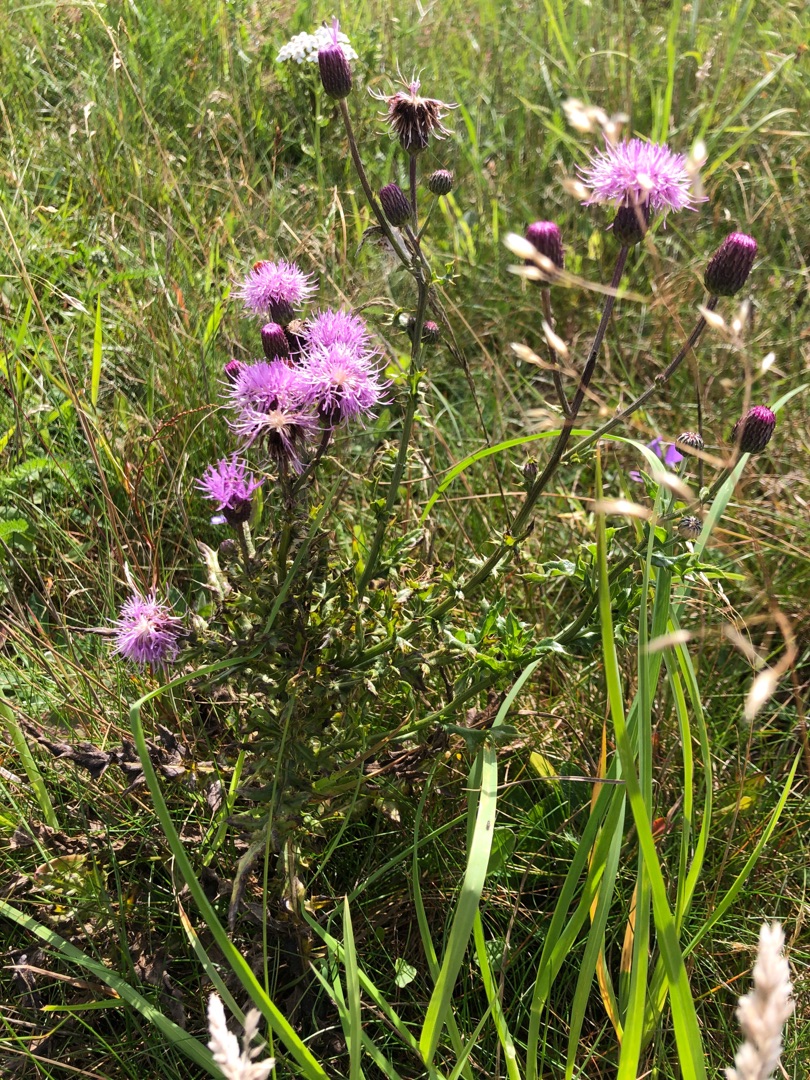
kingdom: Plantae
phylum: Tracheophyta
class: Magnoliopsida
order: Asterales
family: Asteraceae
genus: Cirsium
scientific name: Cirsium arvense
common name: Ager-tidsel
